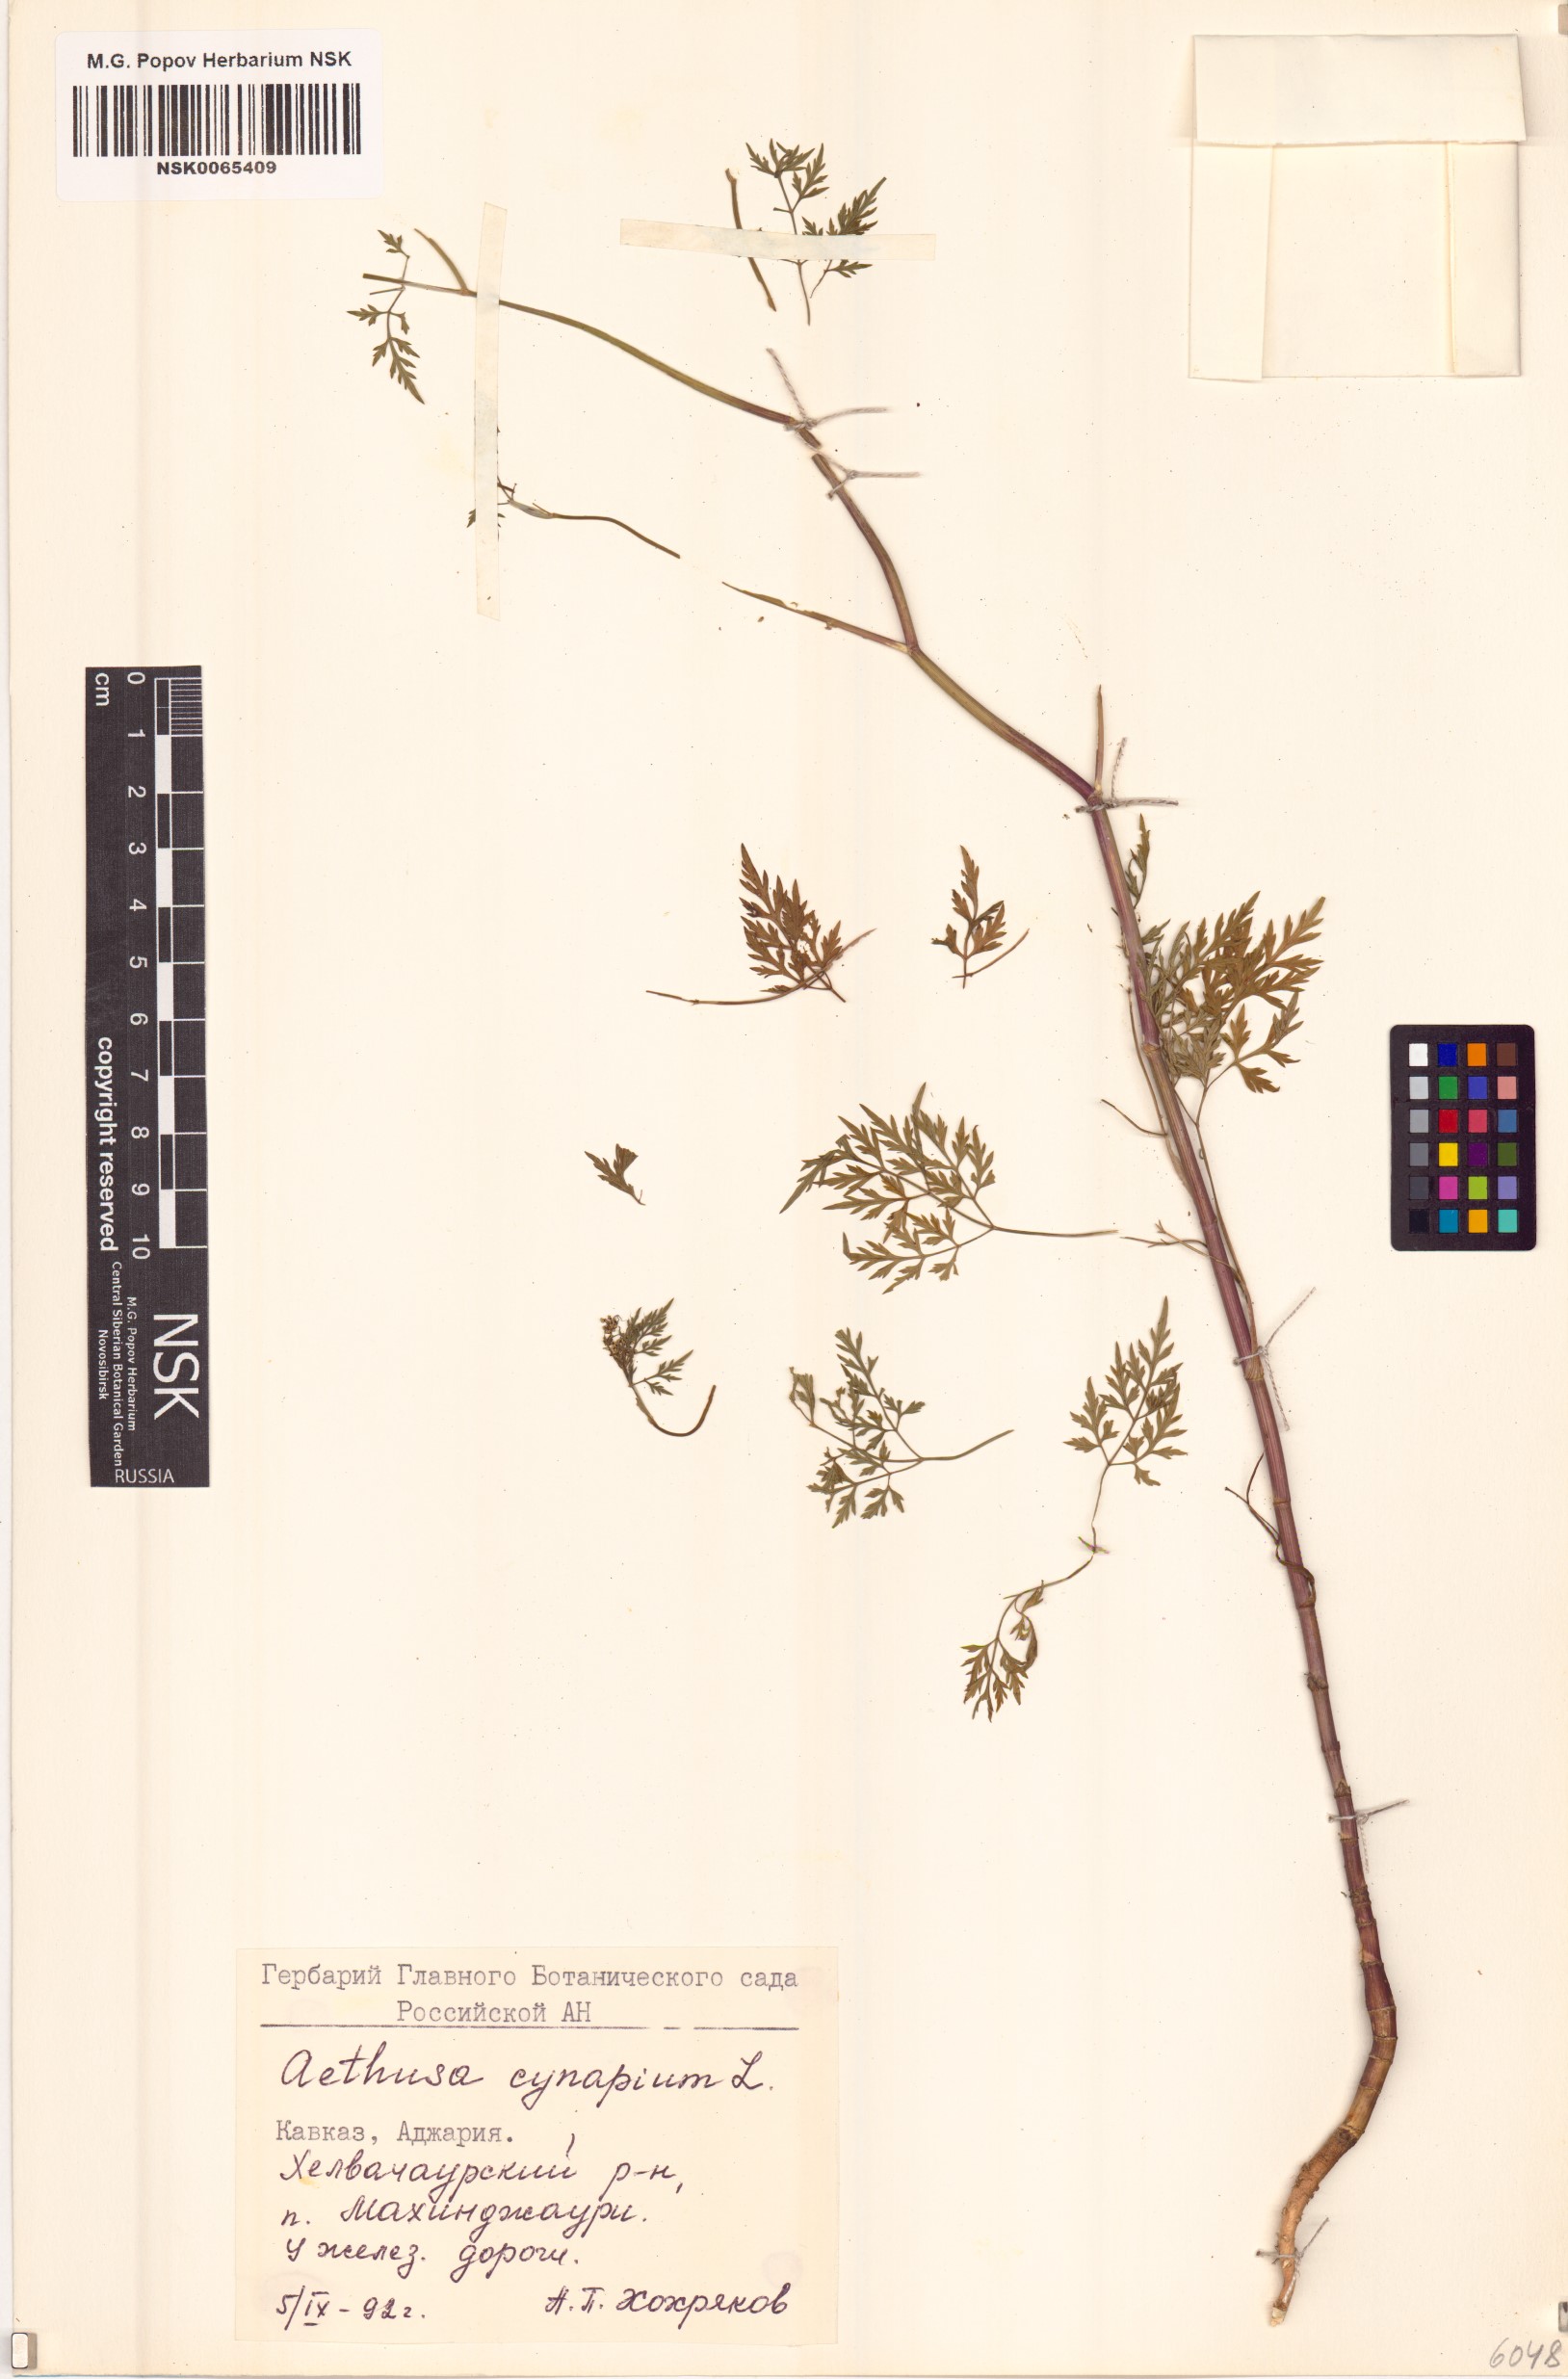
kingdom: Plantae
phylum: Tracheophyta
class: Magnoliopsida
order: Apiales
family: Apiaceae
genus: Aethusa
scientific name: Aethusa cynapium
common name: Fool's parsley
